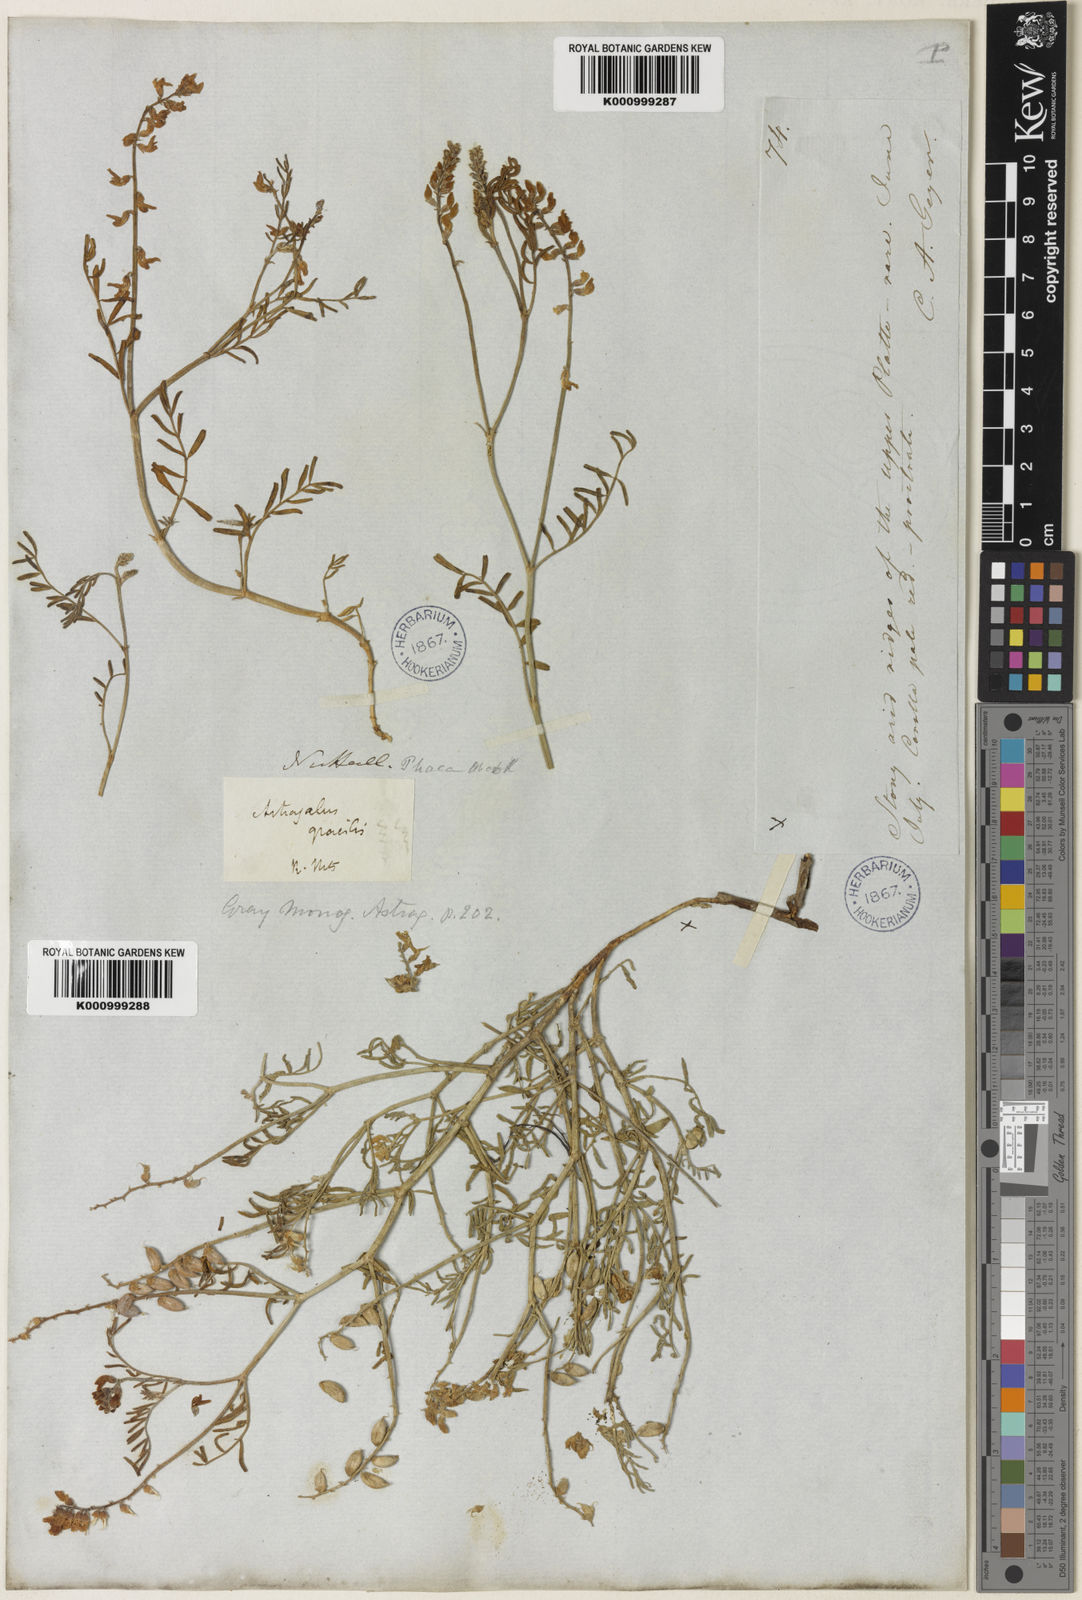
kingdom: Plantae
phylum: Tracheophyta
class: Magnoliopsida
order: Fabales
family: Fabaceae
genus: Astragalus
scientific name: Astragalus gracilis
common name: Slender milk-vetch
